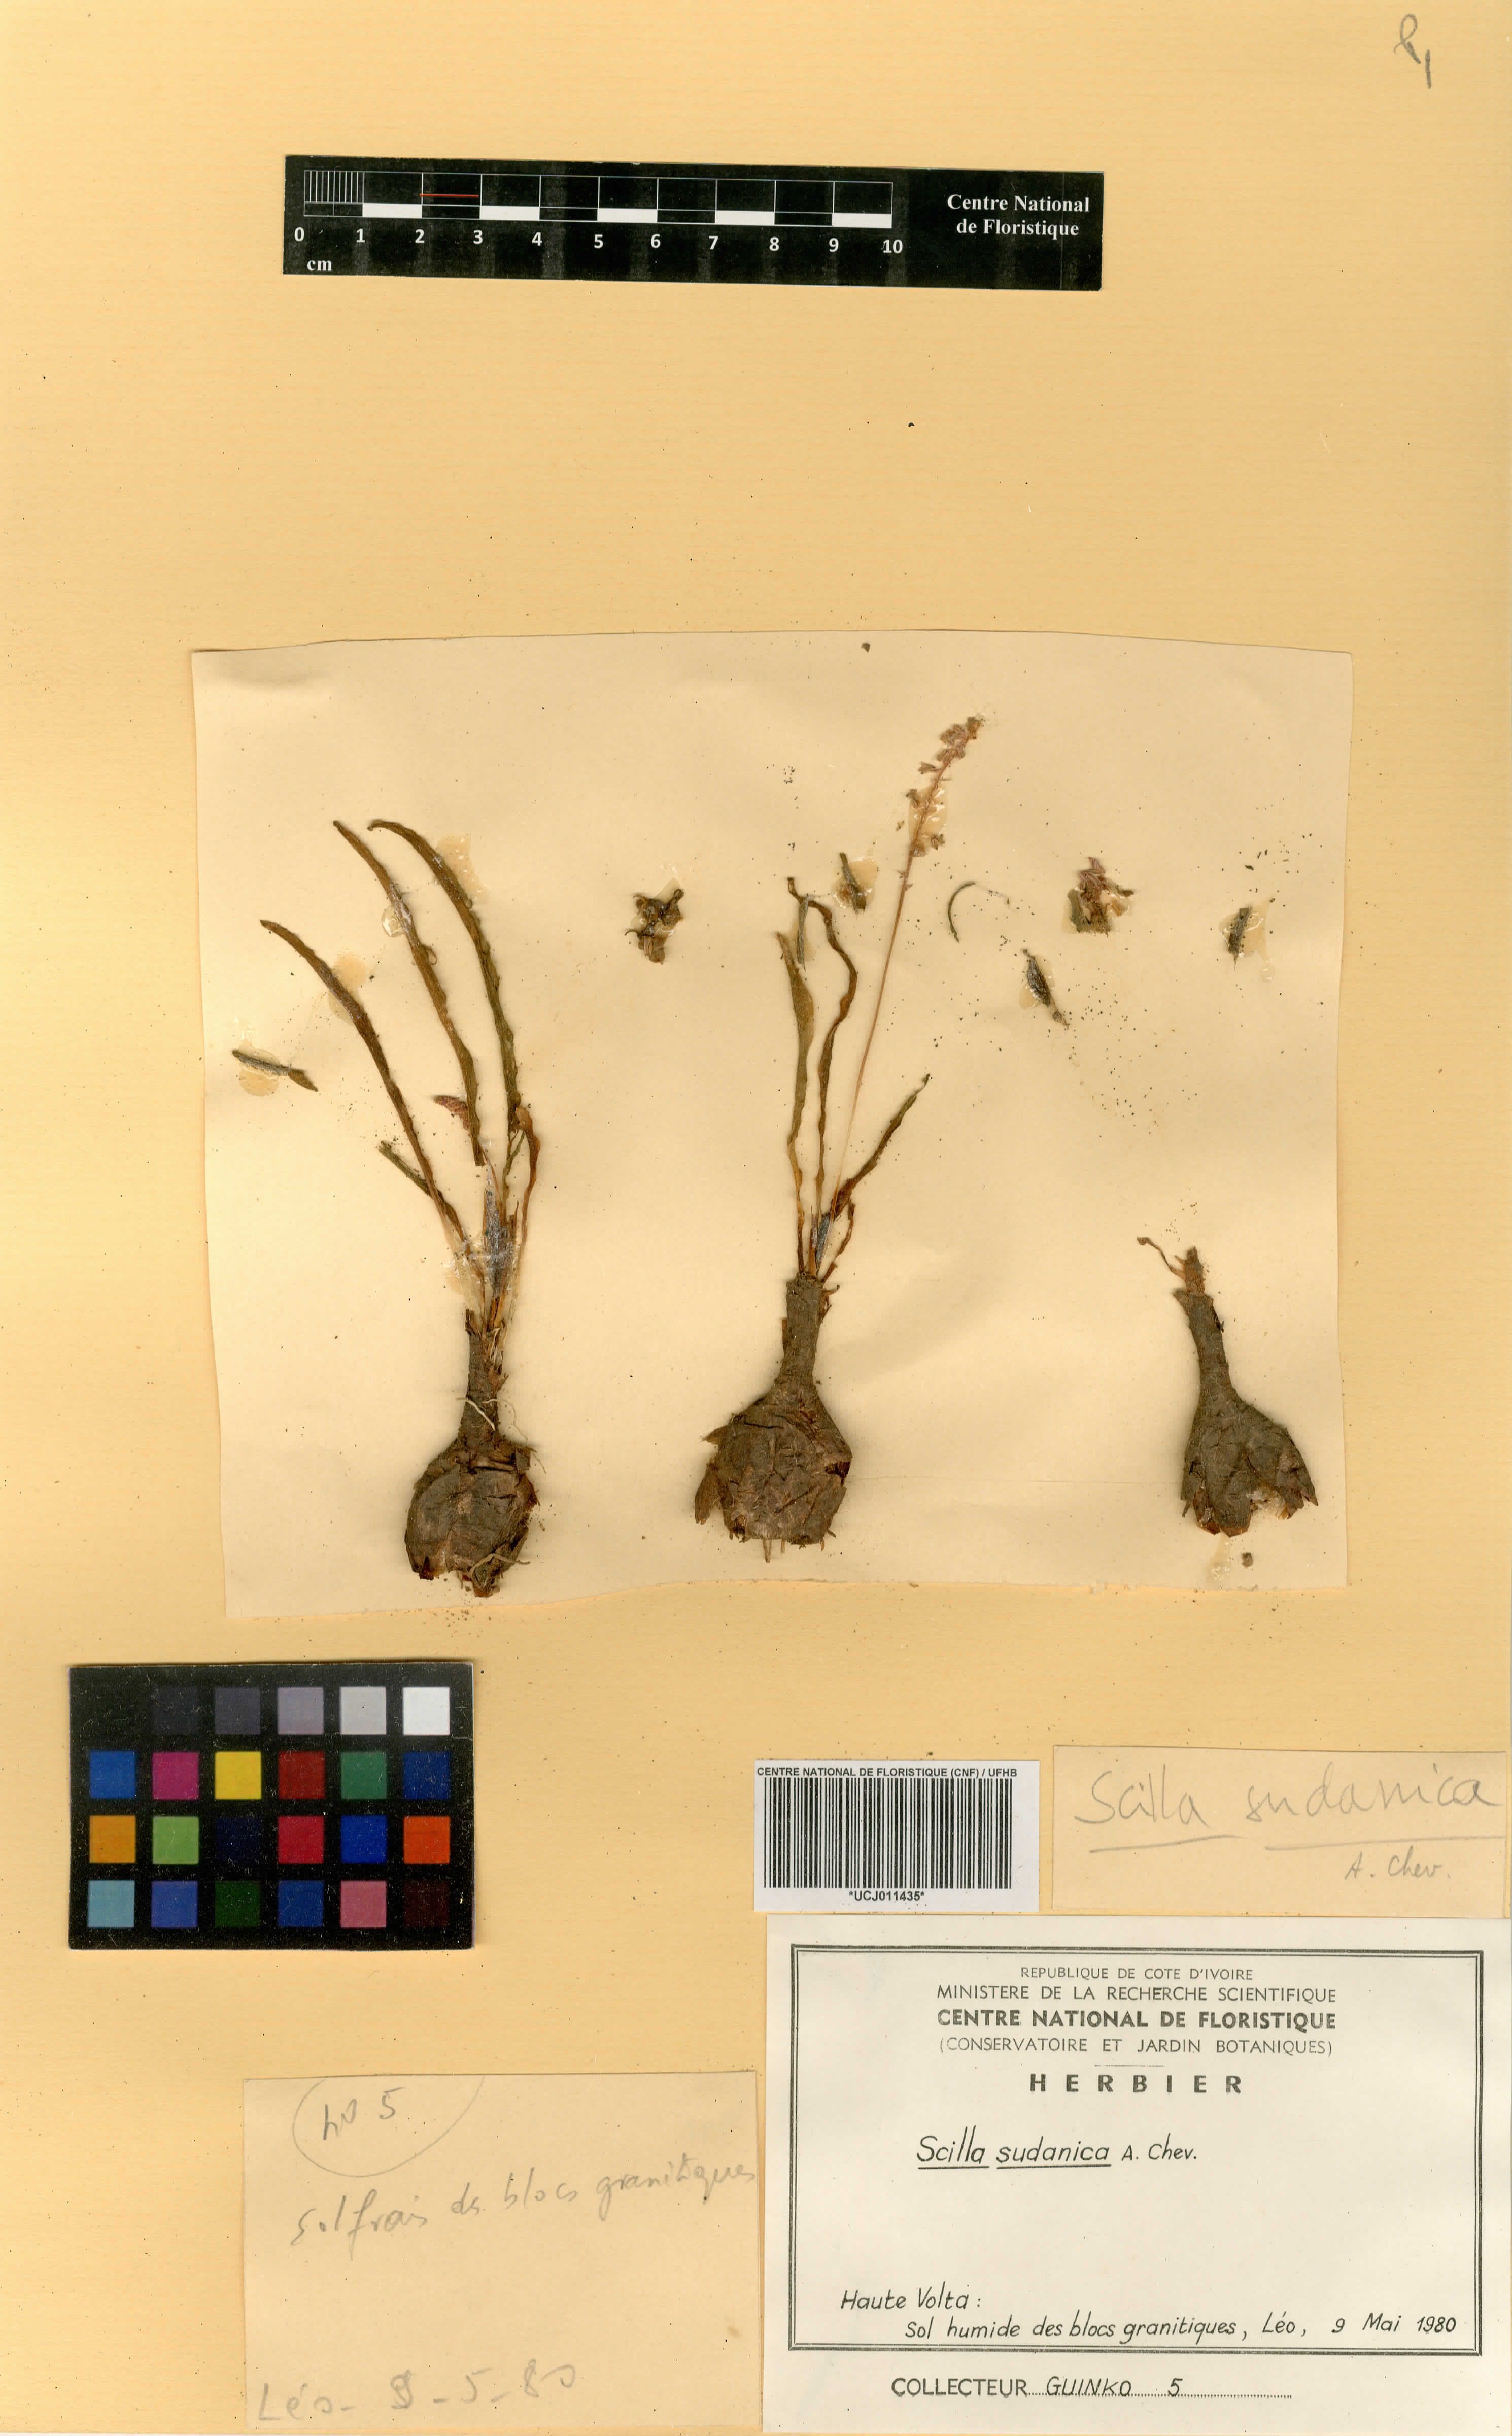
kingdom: Plantae
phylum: Tracheophyta
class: Liliopsida
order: Asparagales
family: Asparagaceae
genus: Ledebouria
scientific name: Ledebouria sudanica
